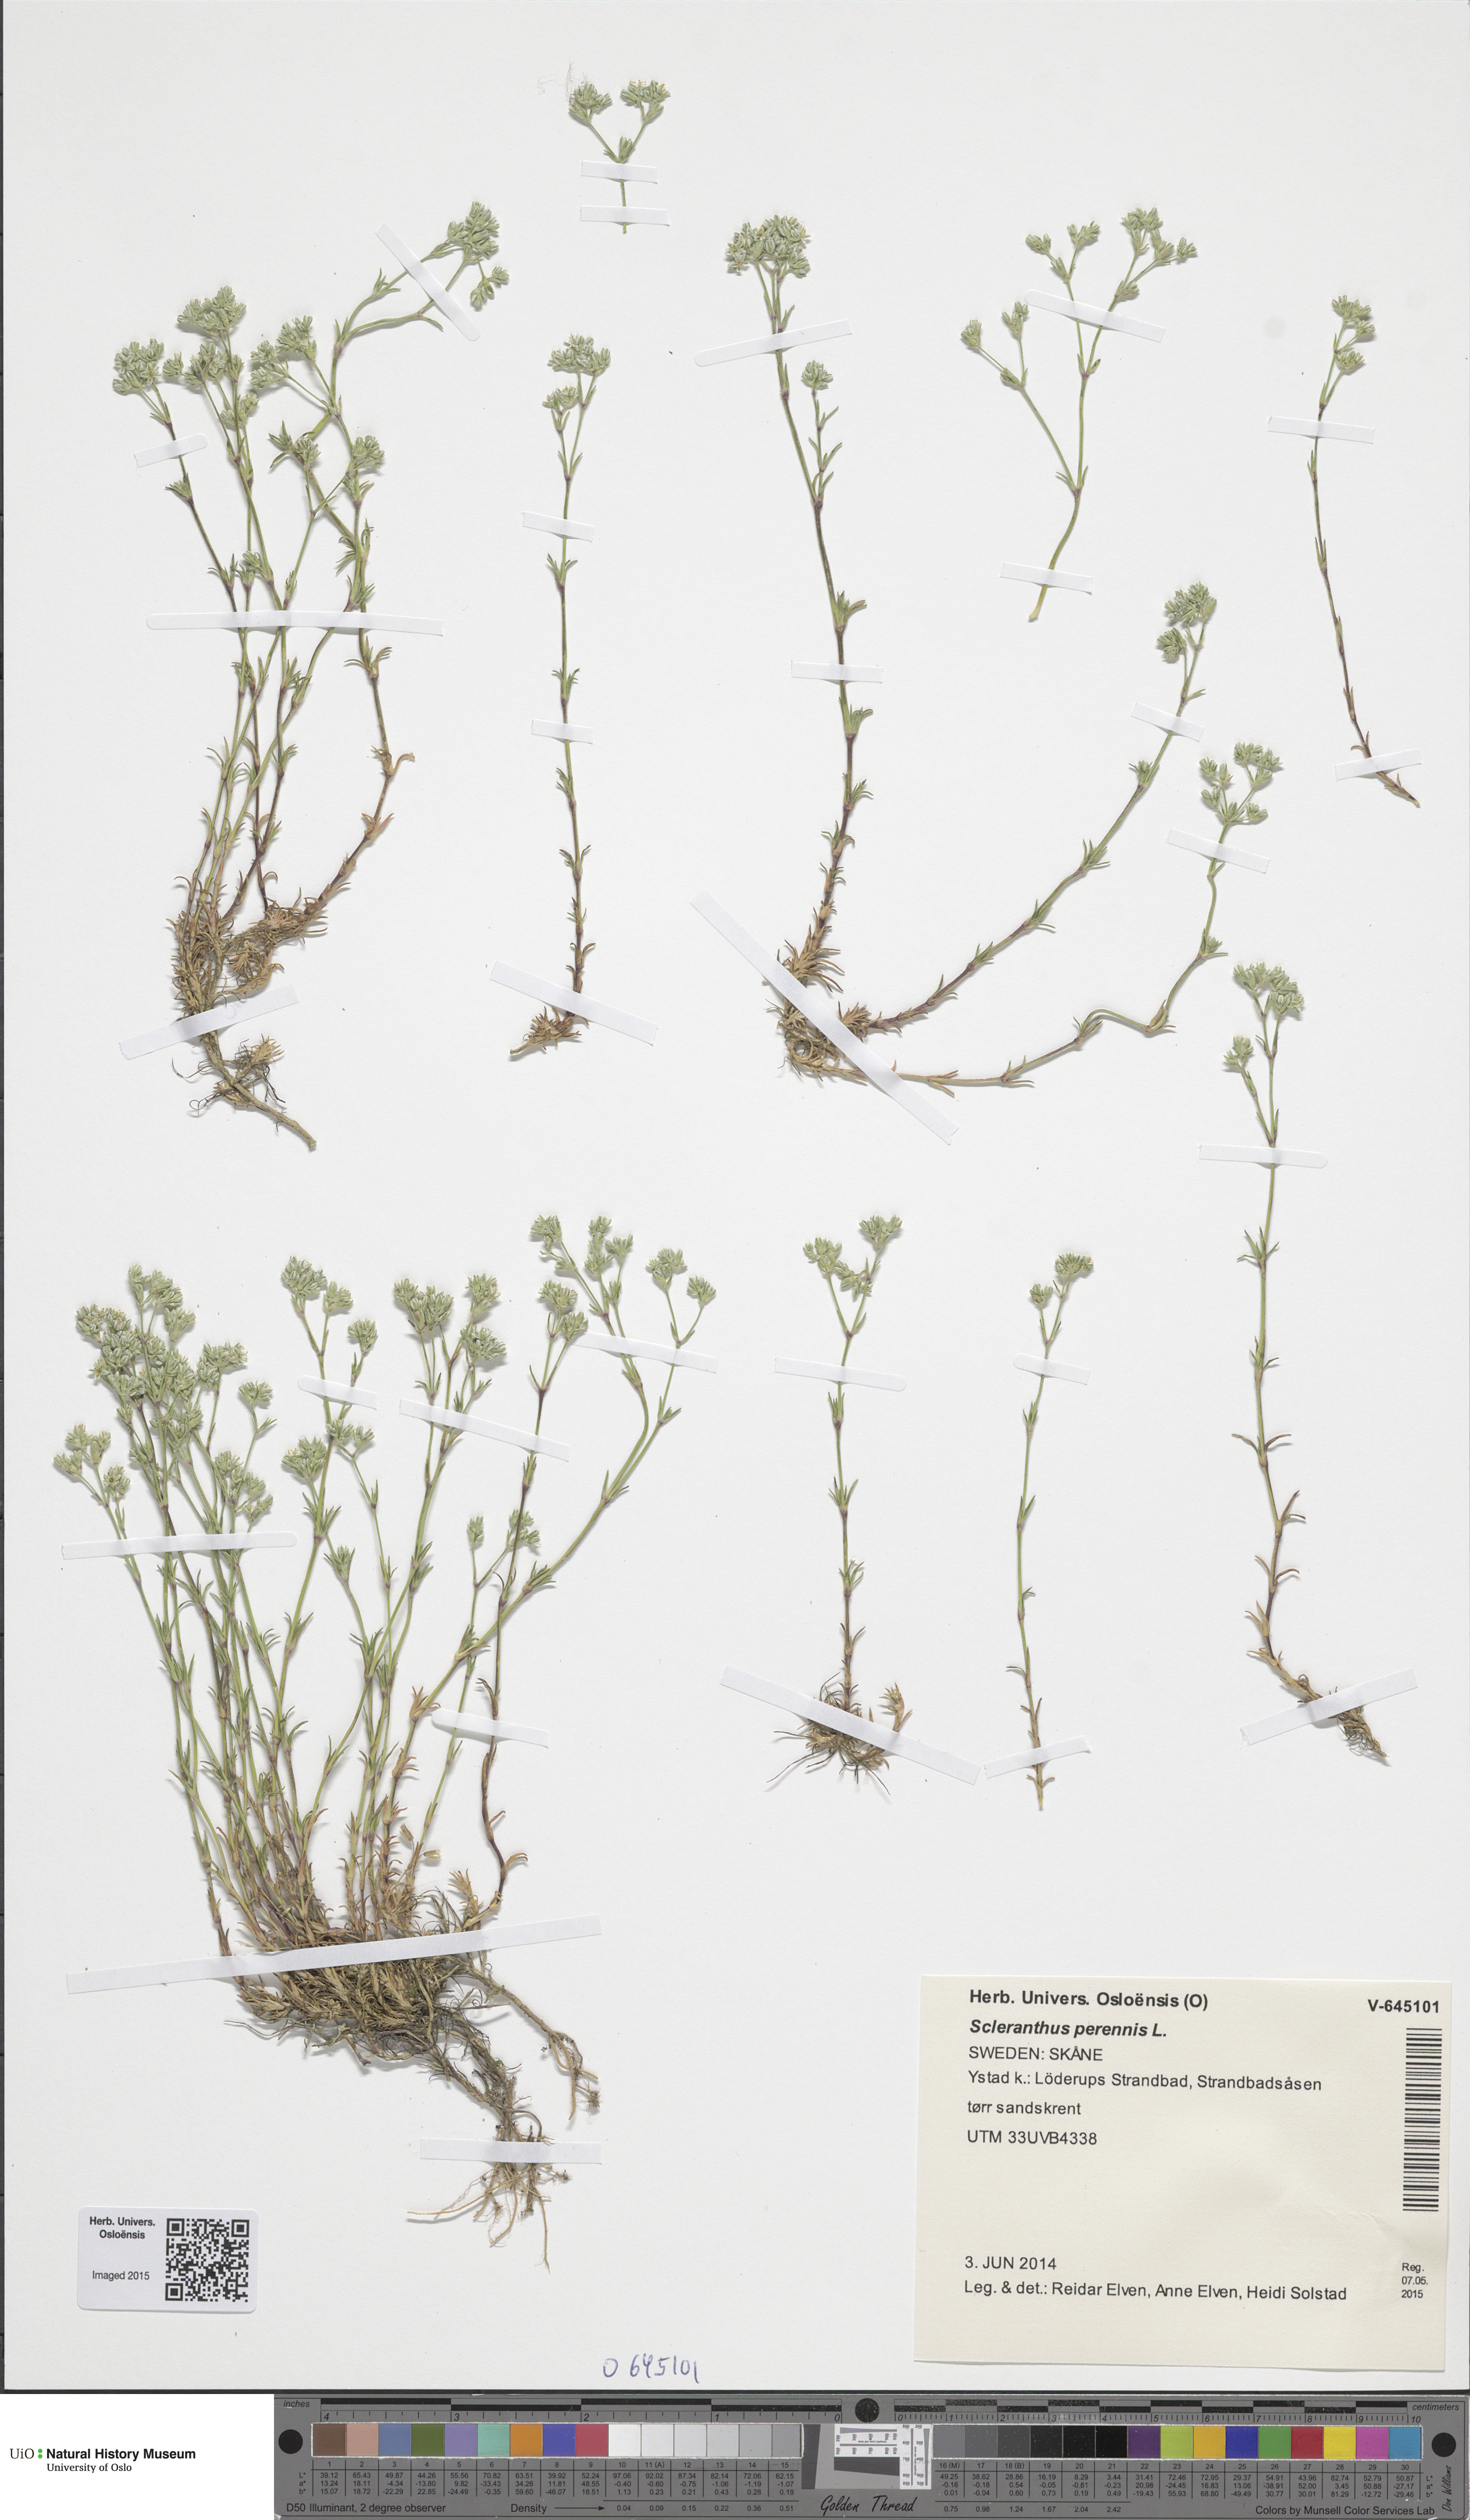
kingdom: Plantae
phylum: Tracheophyta
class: Magnoliopsida
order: Caryophyllales
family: Caryophyllaceae
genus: Scleranthus
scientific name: Scleranthus perennis
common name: Perennial knawel
